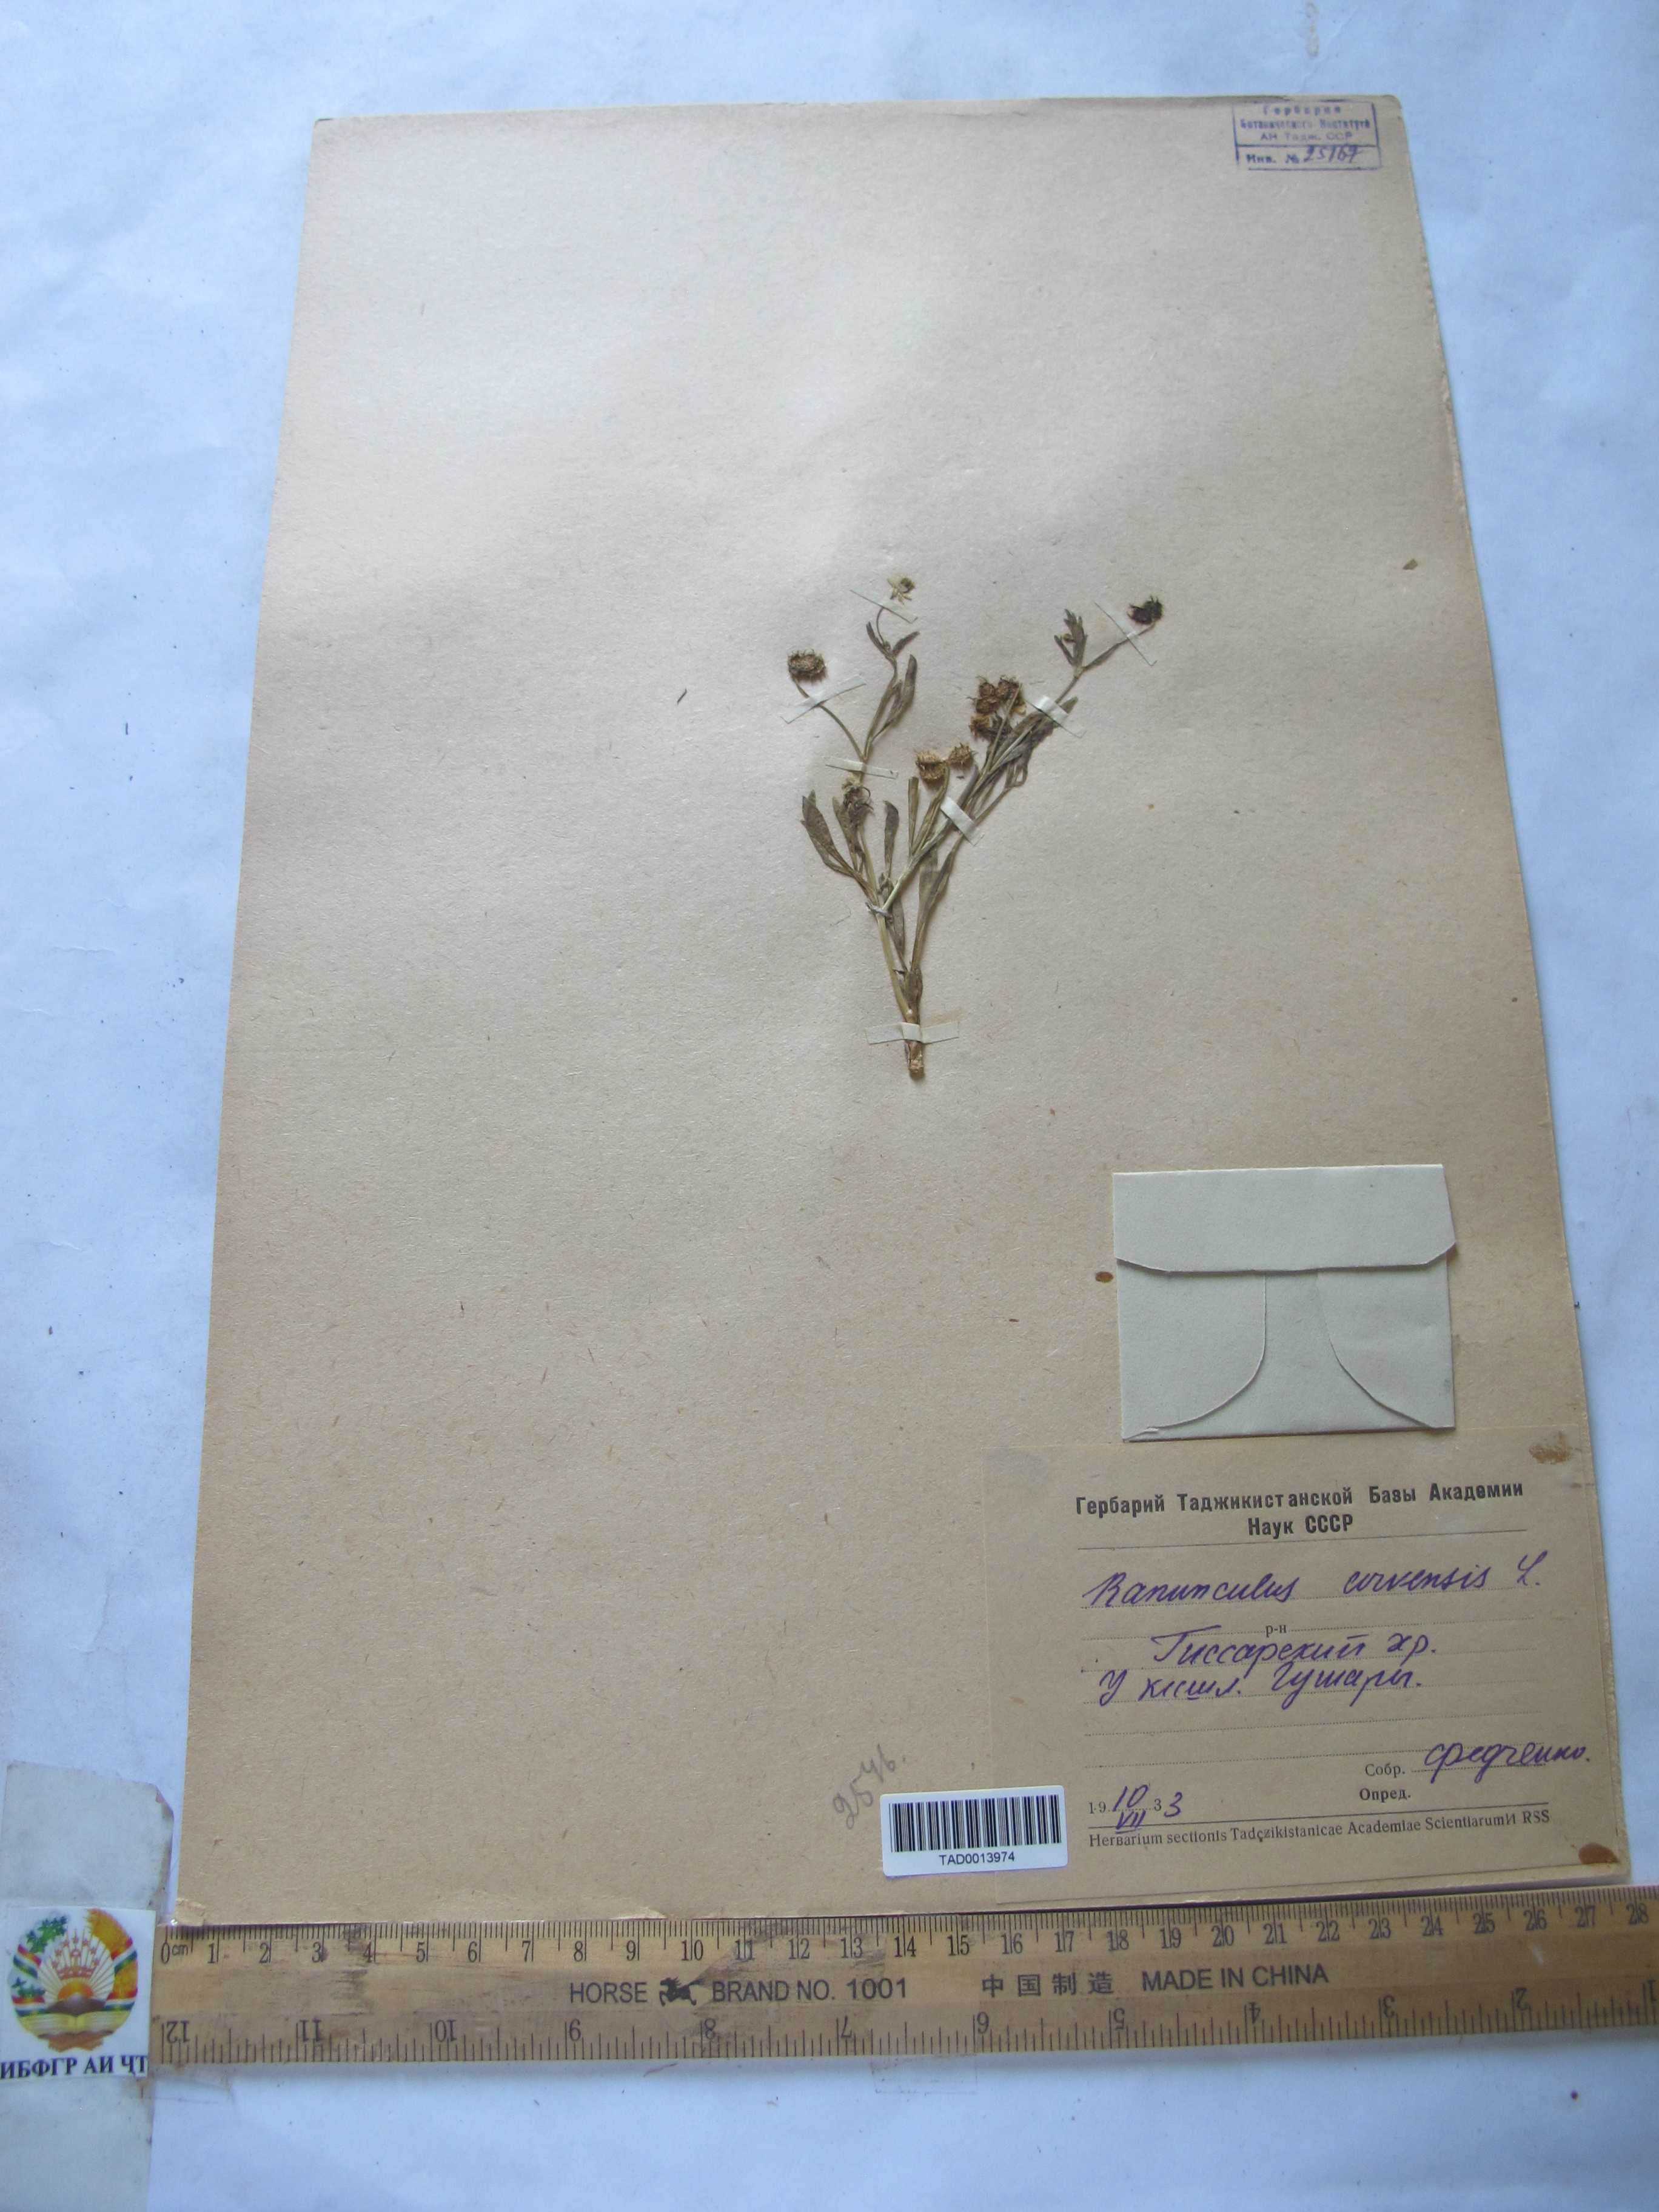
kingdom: Plantae
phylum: Tracheophyta
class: Magnoliopsida
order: Ranunculales
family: Ranunculaceae
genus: Ranunculus
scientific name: Ranunculus arvensis
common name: Corn buttercup
